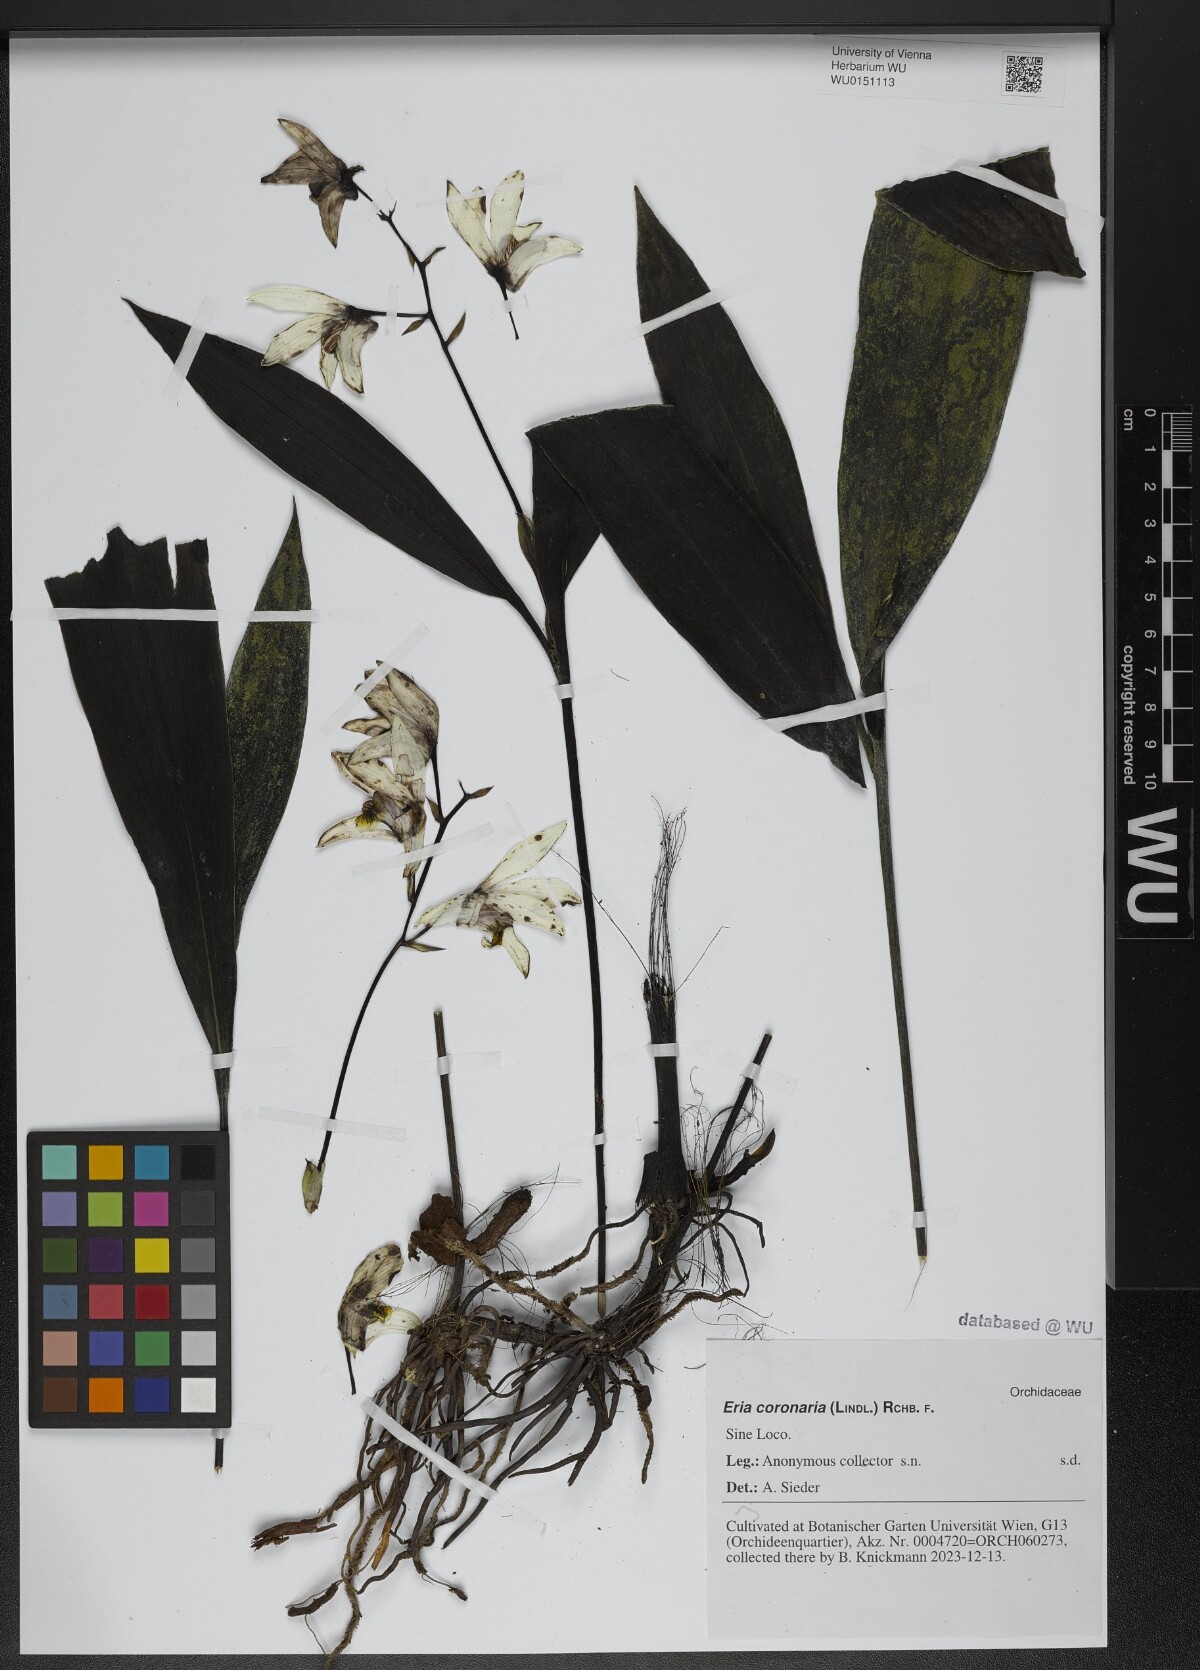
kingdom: Plantae
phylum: Tracheophyta
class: Liliopsida
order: Asparagales
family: Orchidaceae
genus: Eria
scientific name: Eria coronaria
